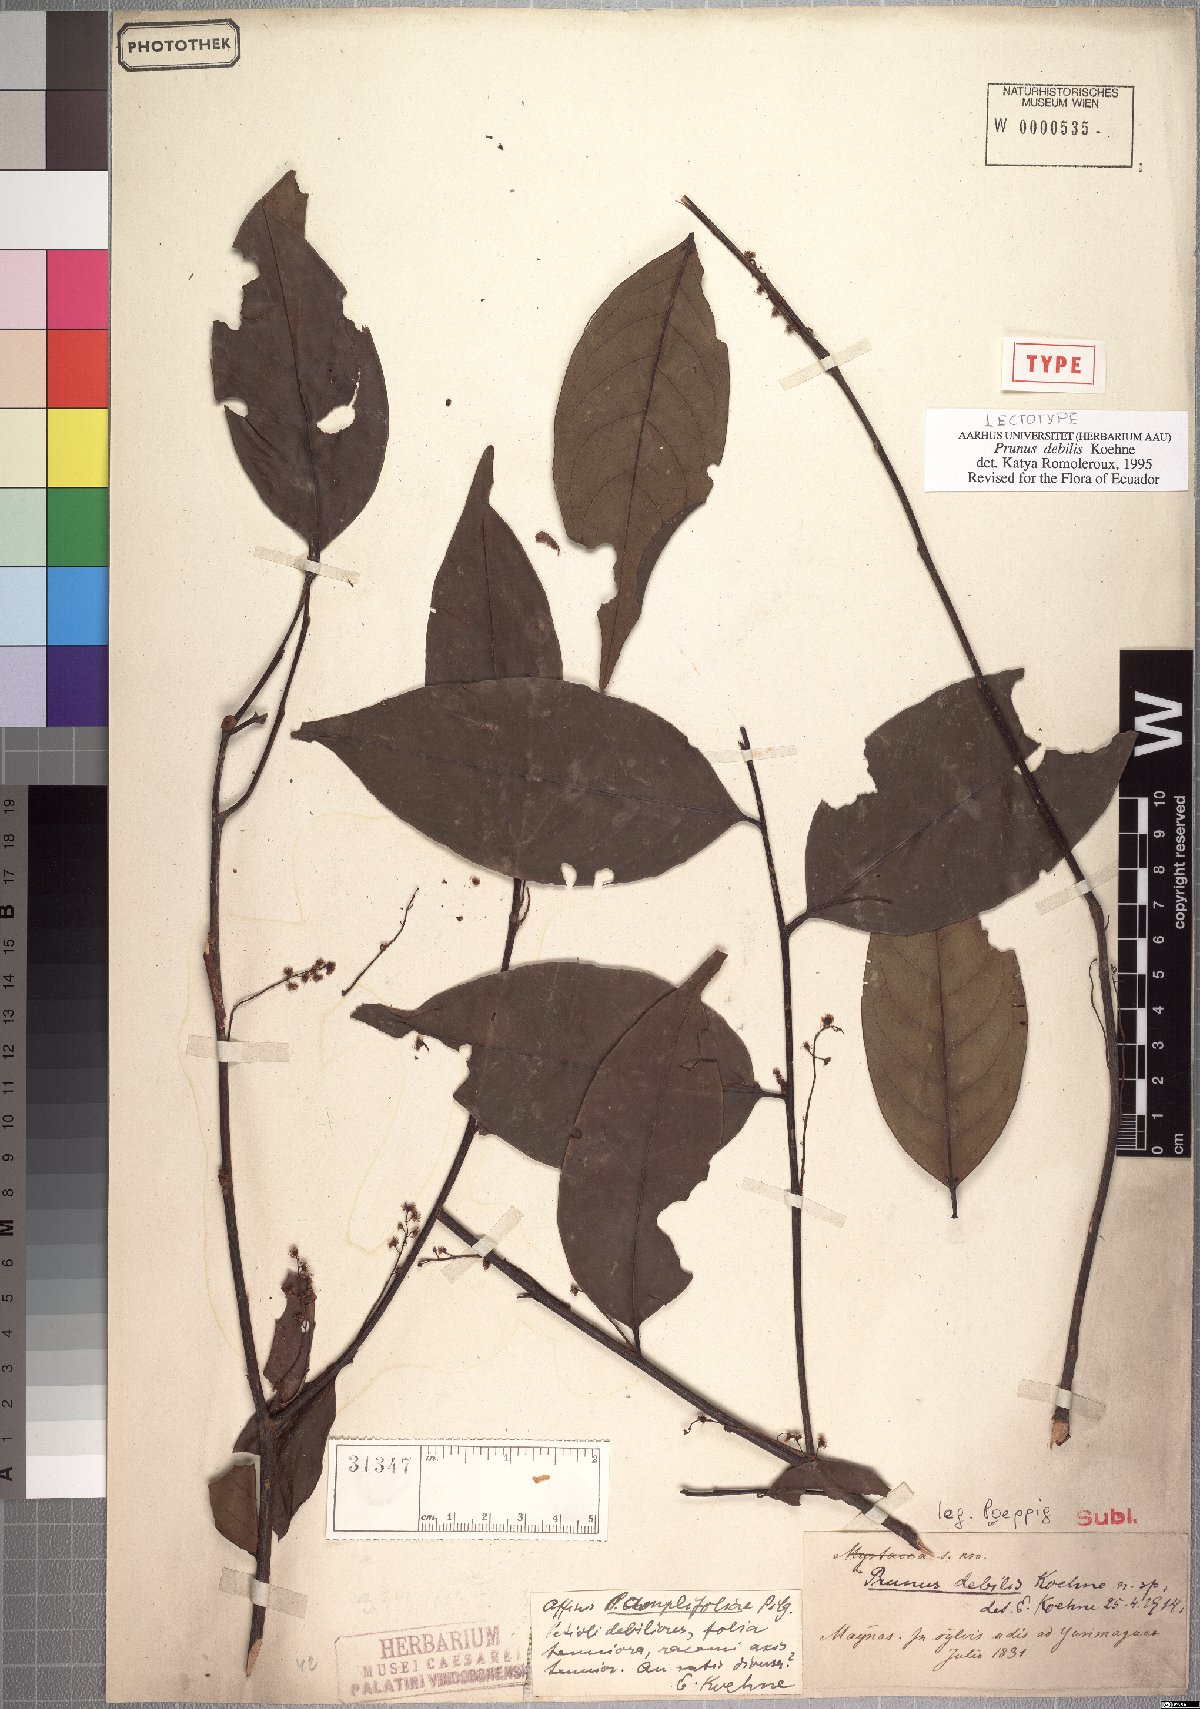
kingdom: Plantae
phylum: Tracheophyta
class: Magnoliopsida
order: Rosales
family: Rosaceae
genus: Prunus
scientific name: Prunus debilis
